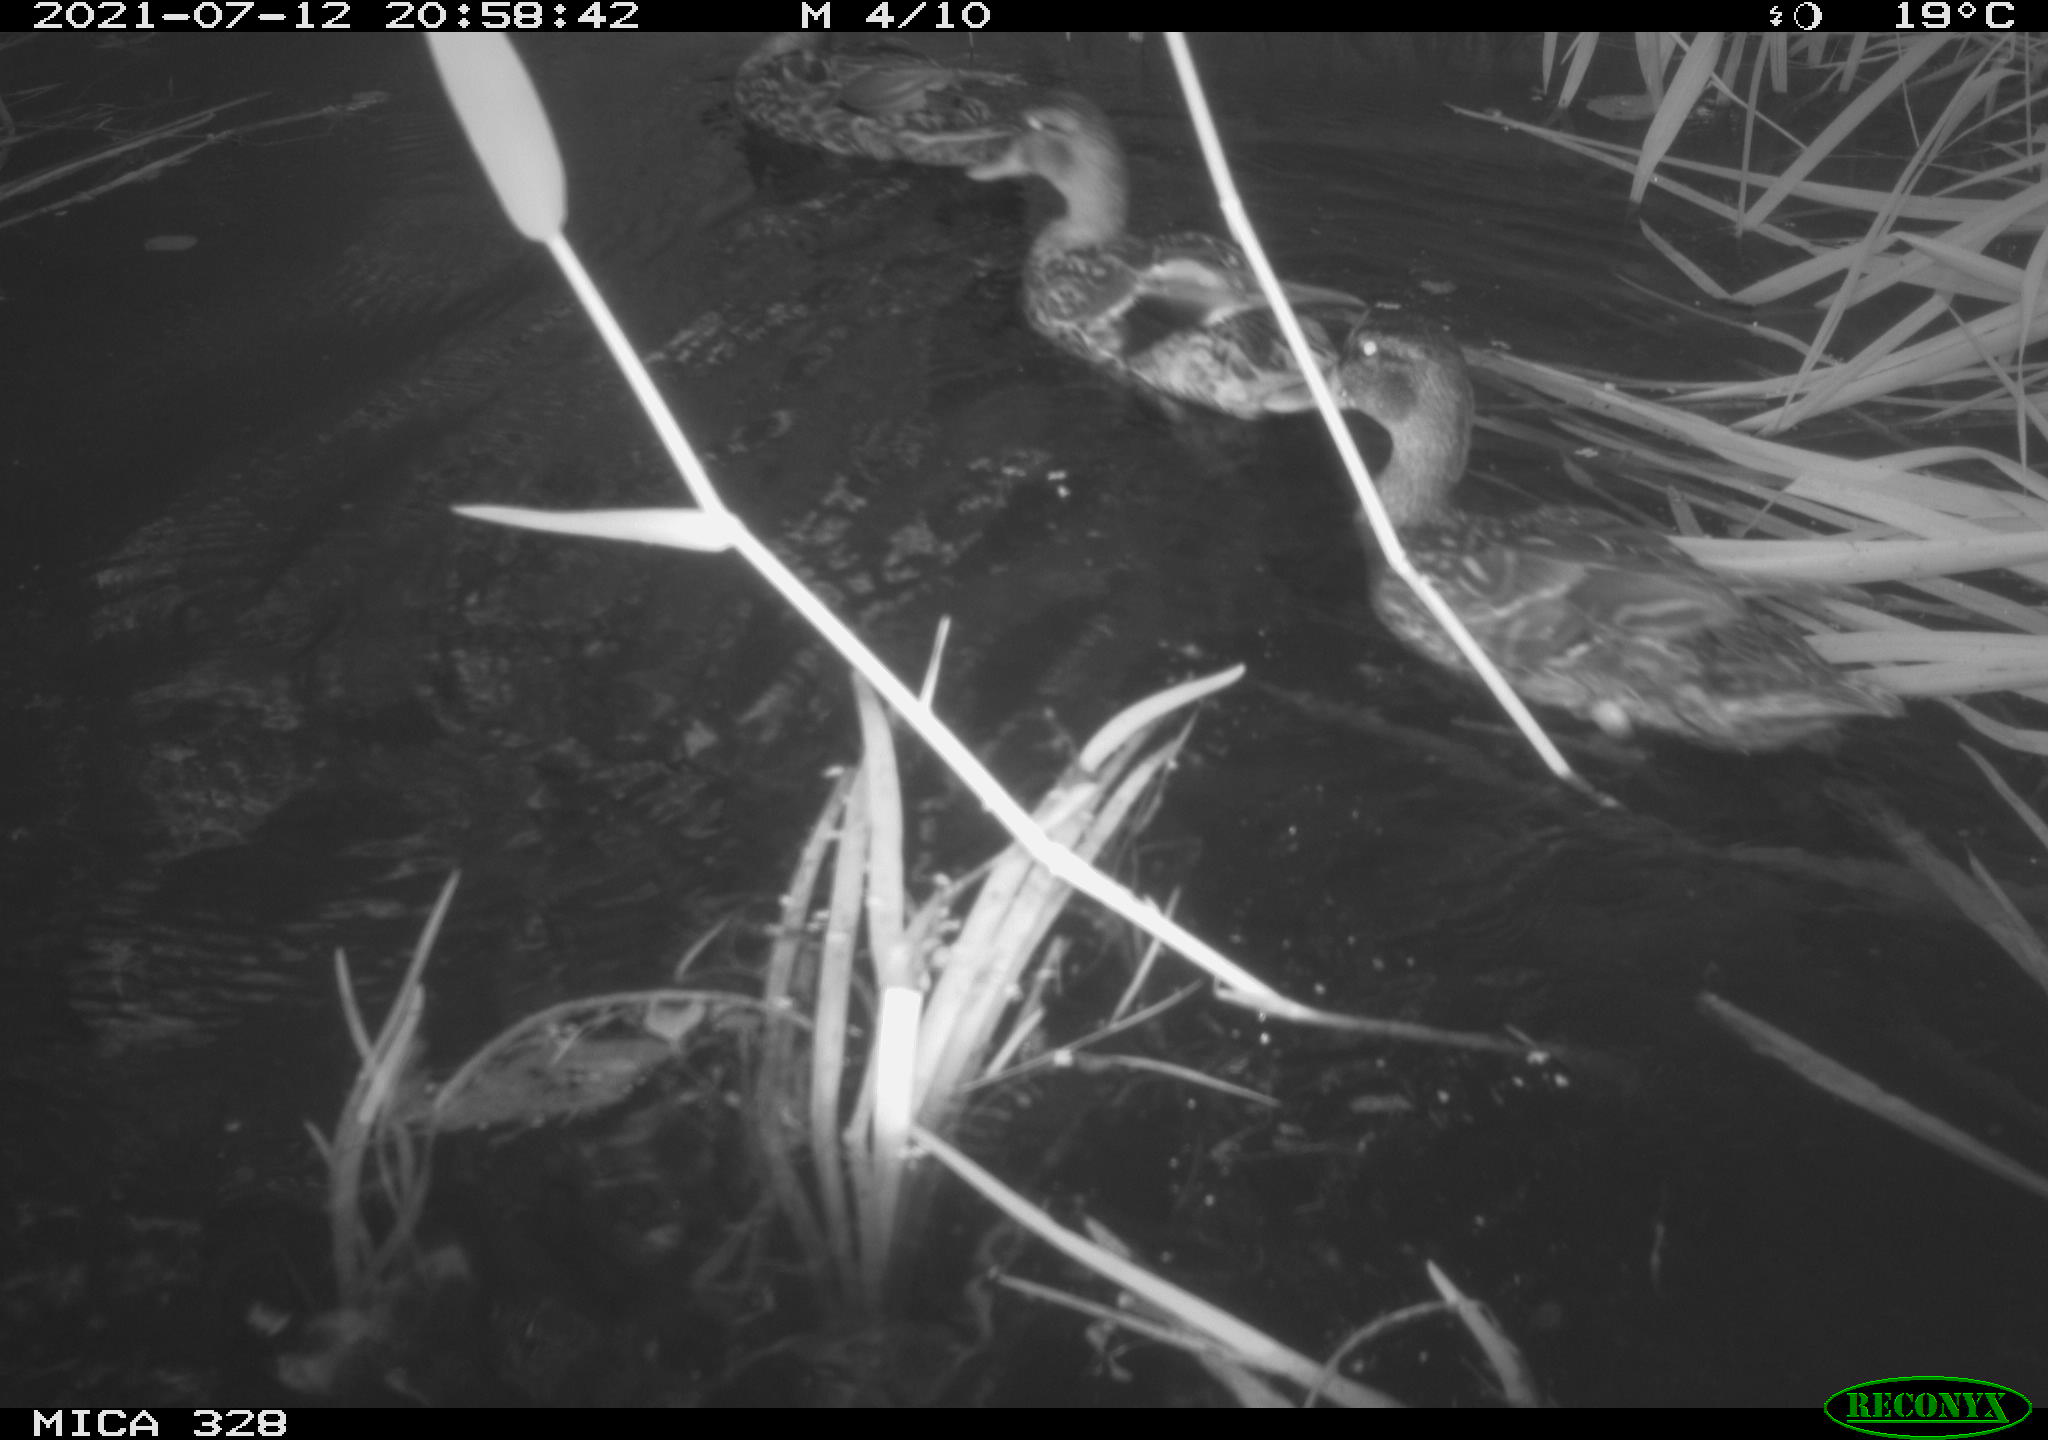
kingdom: Animalia
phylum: Chordata
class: Aves
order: Anseriformes
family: Anatidae
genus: Anas
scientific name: Anas platyrhynchos
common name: Mallard
